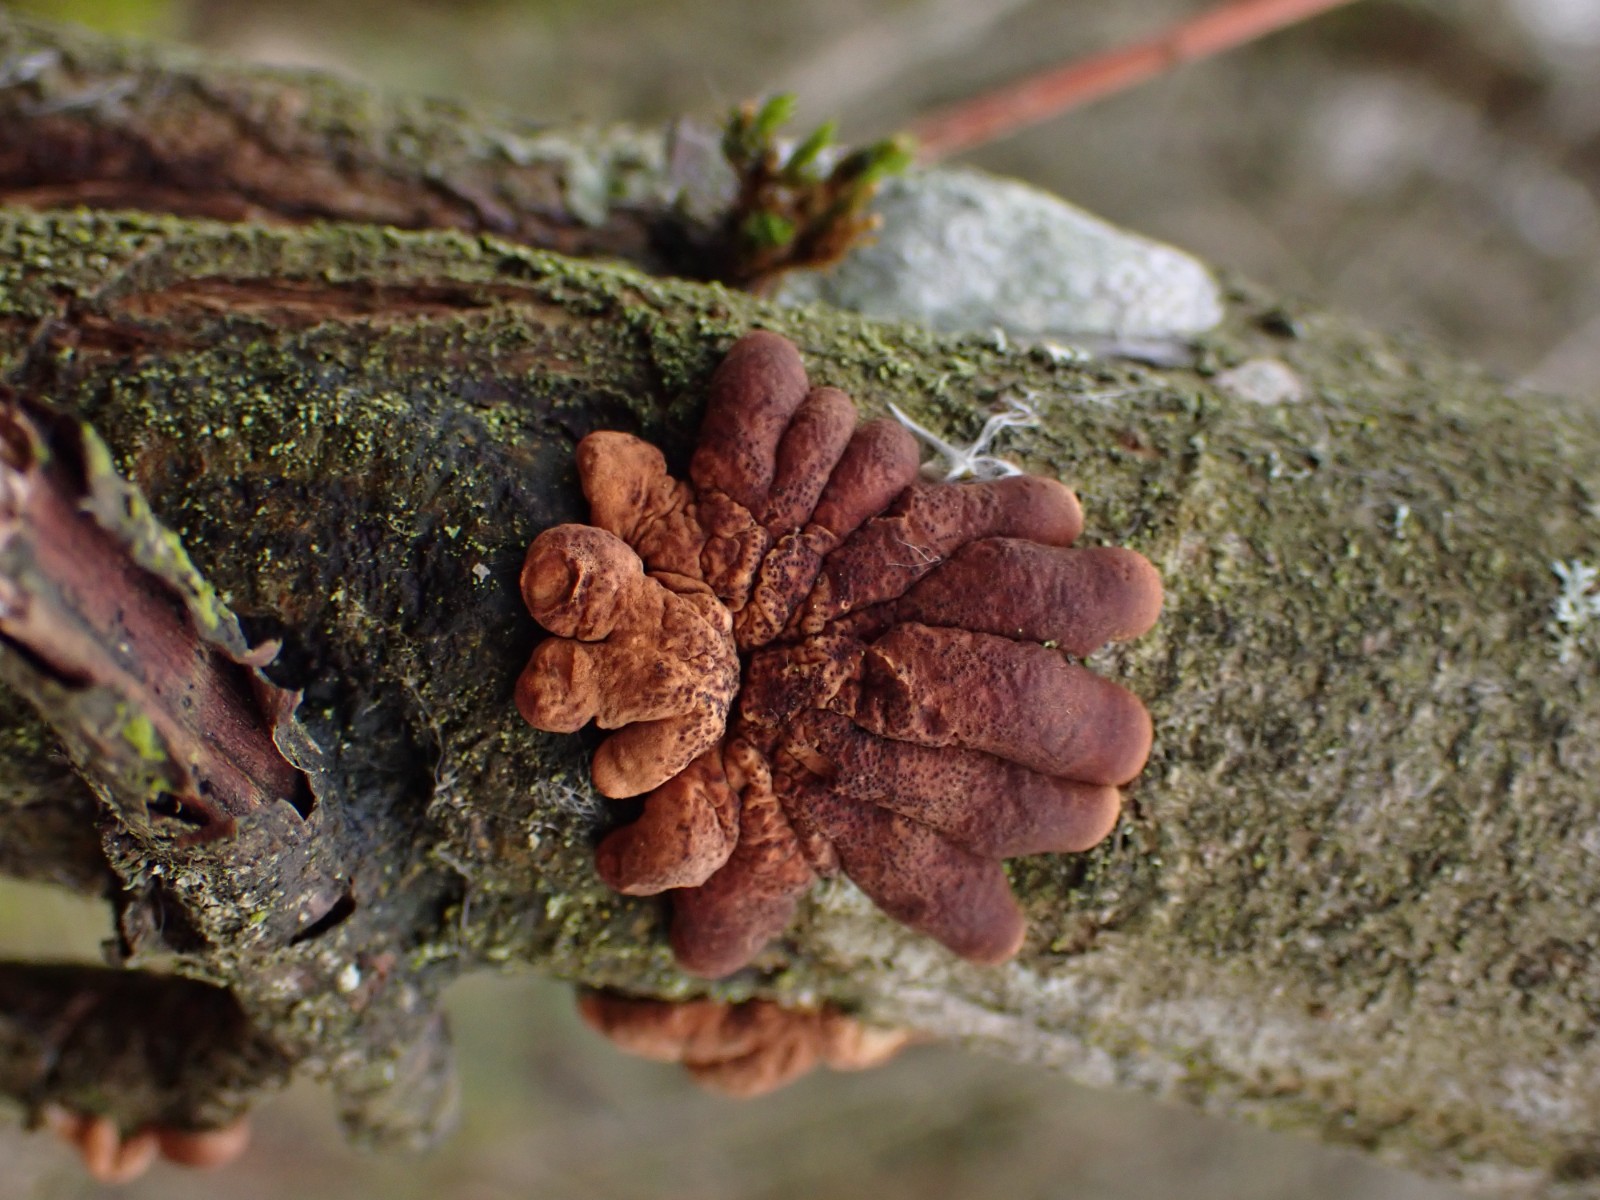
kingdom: Fungi
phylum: Ascomycota
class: Sordariomycetes
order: Hypocreales
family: Hypocreaceae
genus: Hypocreopsis
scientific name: Hypocreopsis lichenoides
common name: pilfinger
